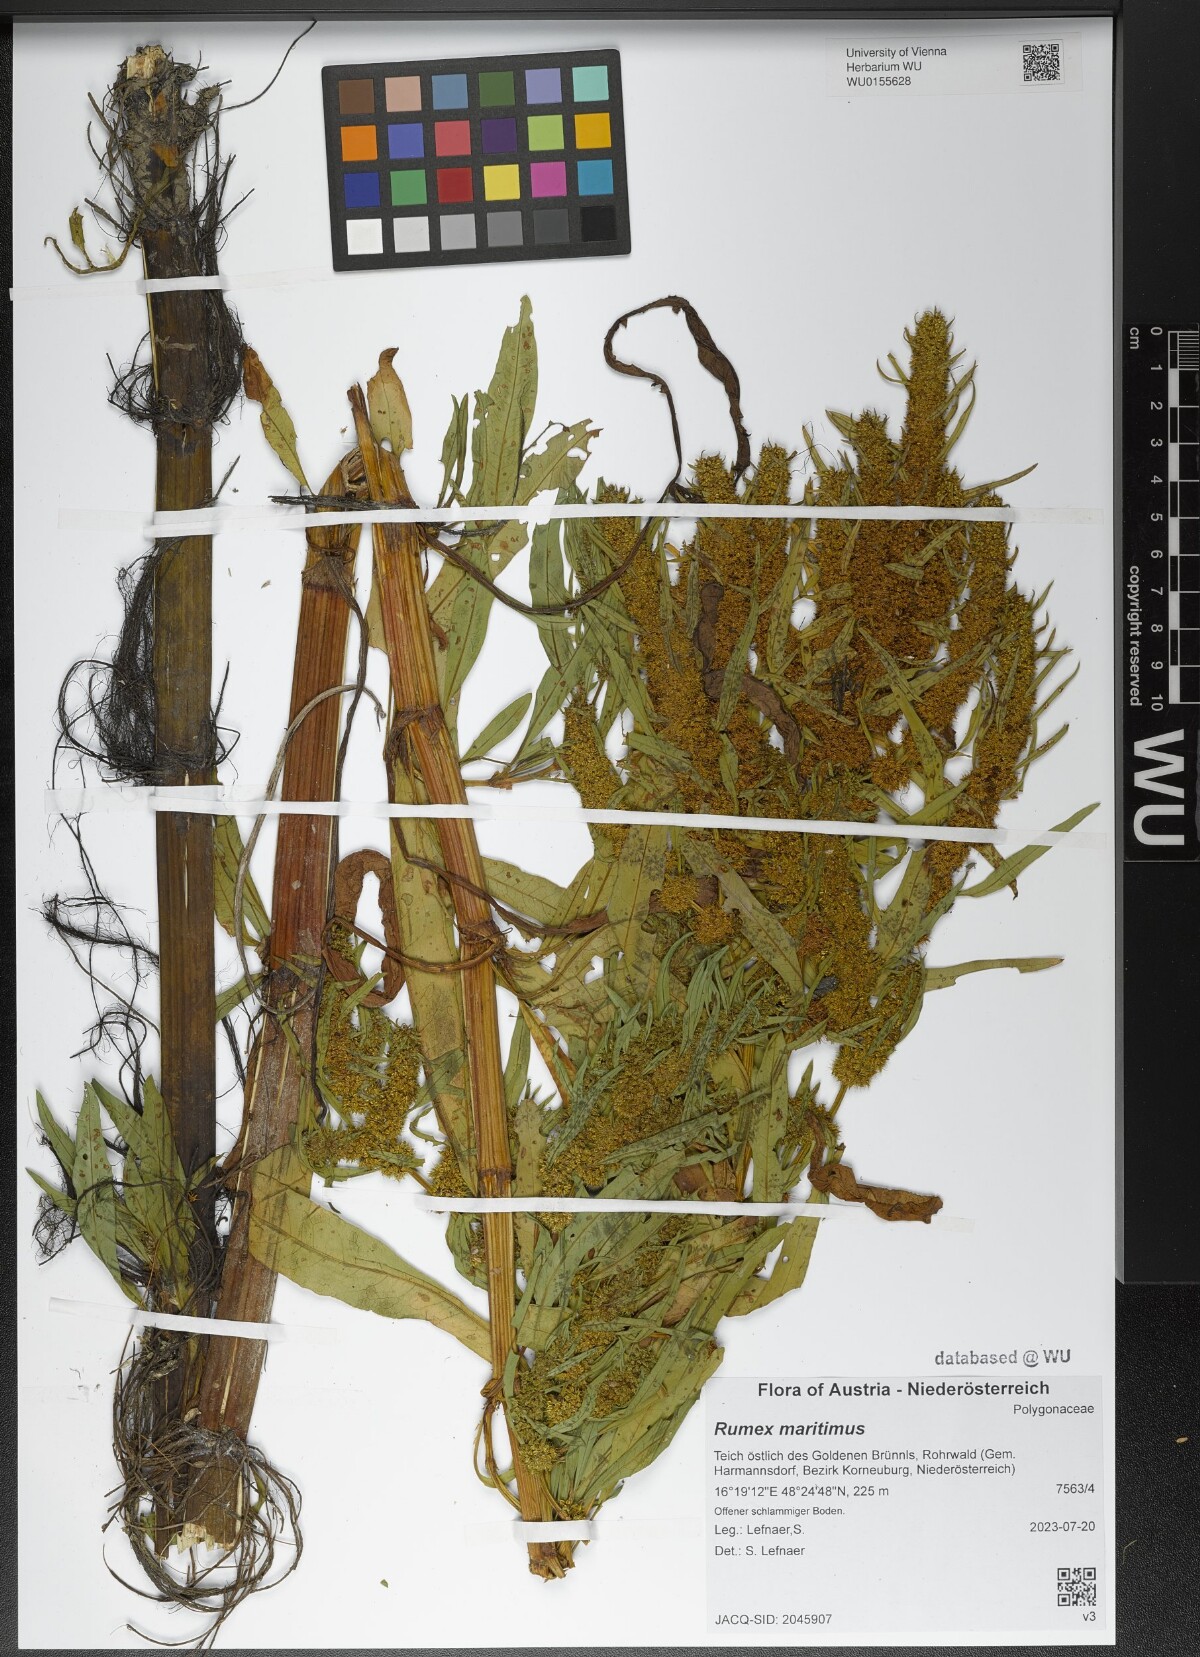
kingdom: Plantae
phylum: Tracheophyta
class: Magnoliopsida
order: Caryophyllales
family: Polygonaceae
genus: Rumex
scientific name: Rumex maritimus
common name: Golden dock
